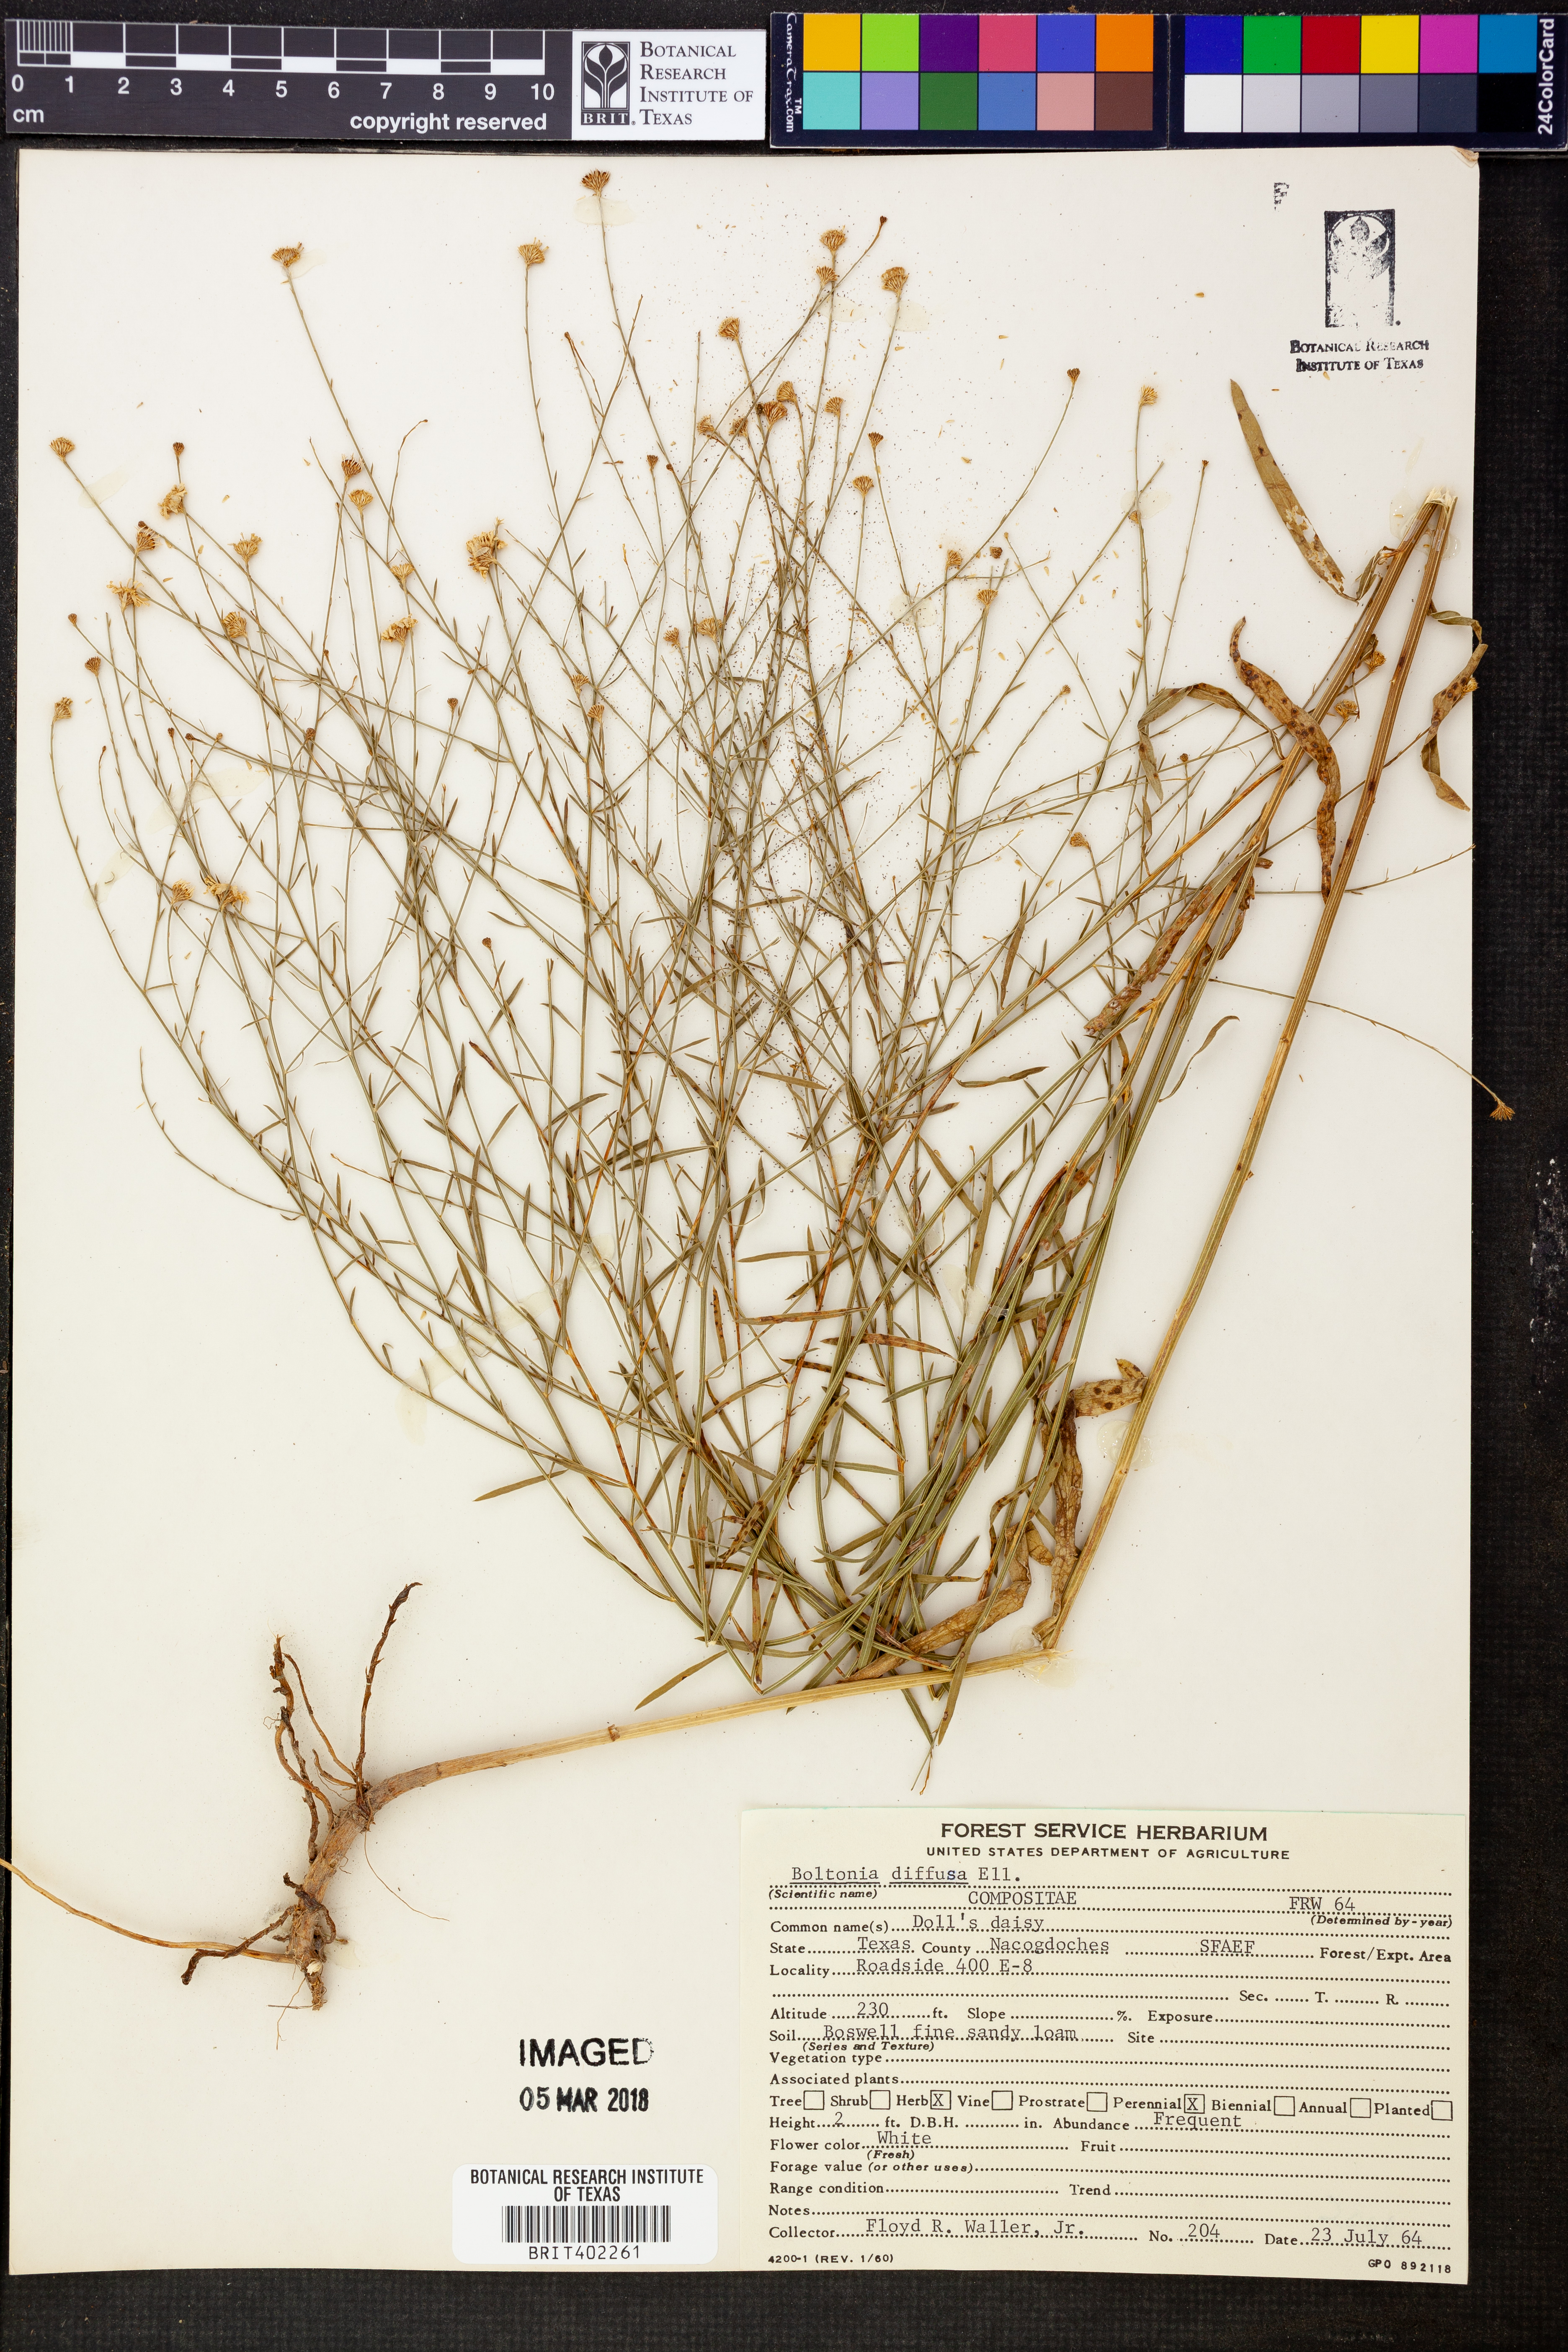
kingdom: Plantae
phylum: Tracheophyta
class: Magnoliopsida
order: Asterales
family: Asteraceae
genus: Boltonia
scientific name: Boltonia diffusa
